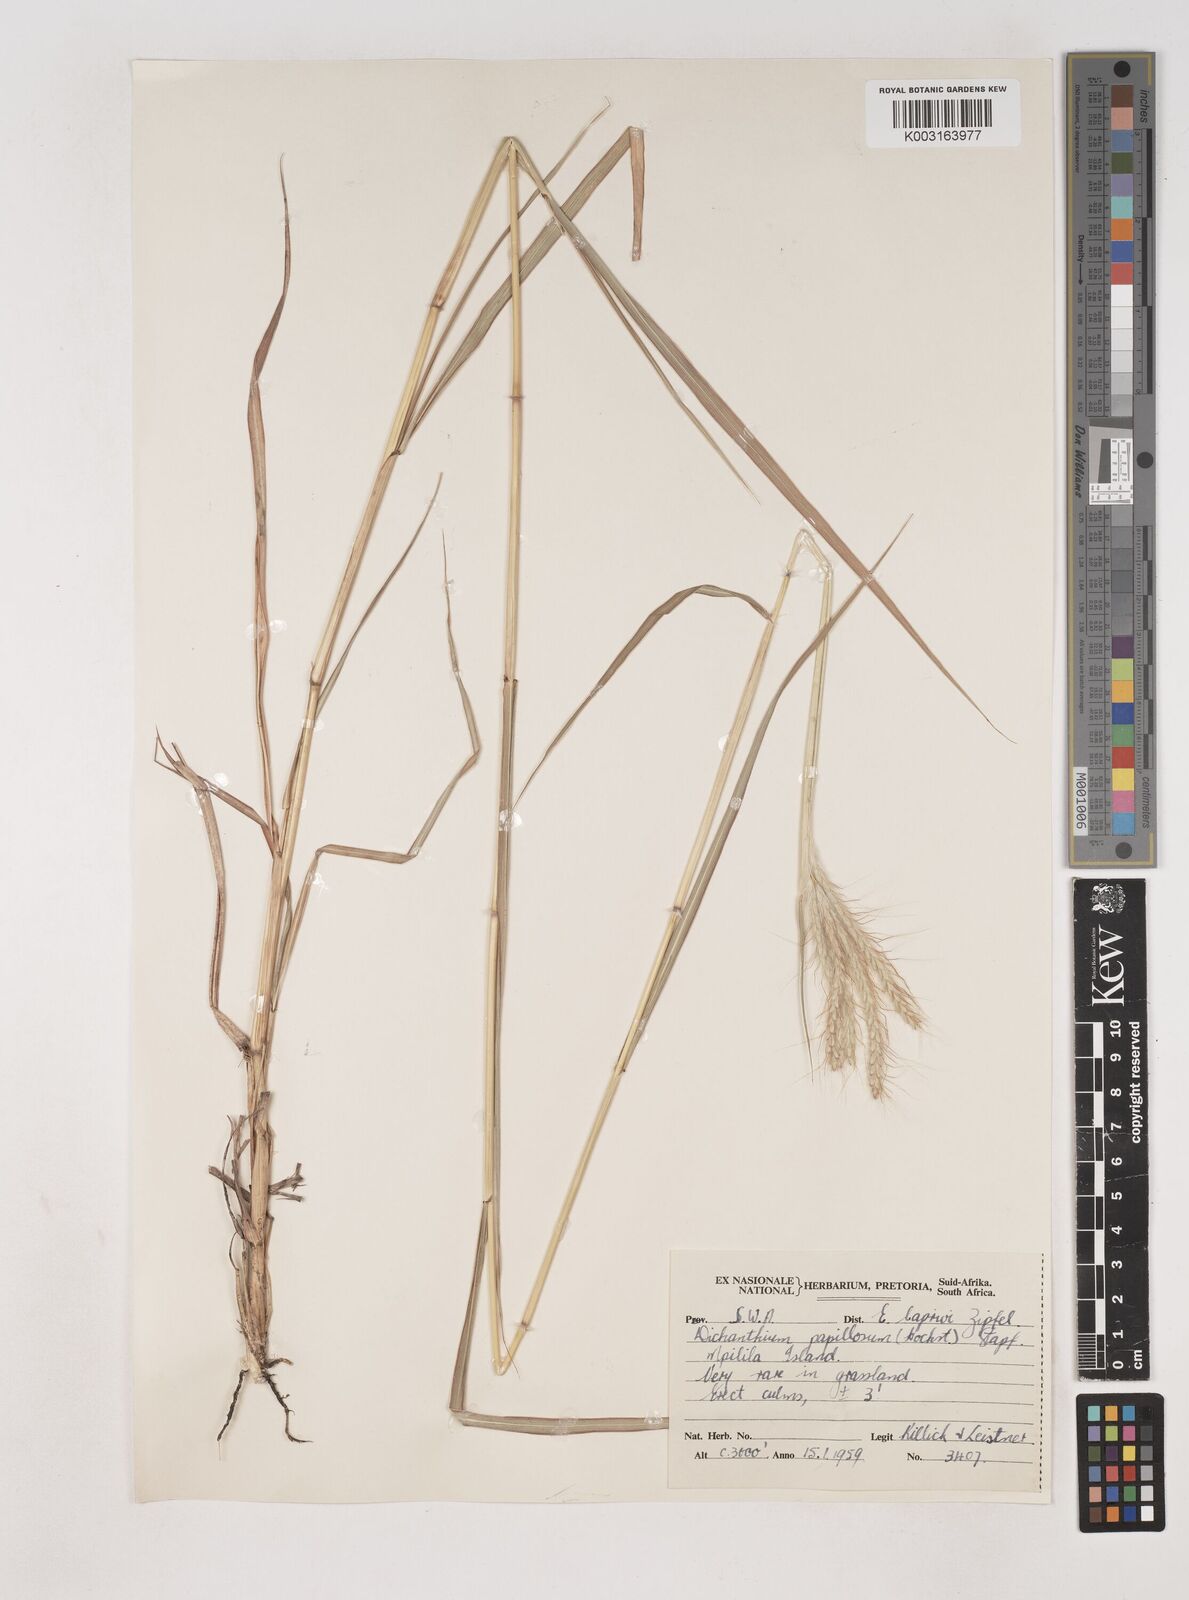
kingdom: Plantae
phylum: Tracheophyta
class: Liliopsida
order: Poales
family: Poaceae
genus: Dichanthium
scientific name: Dichanthium annulatum
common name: Kleberg's bluestem
